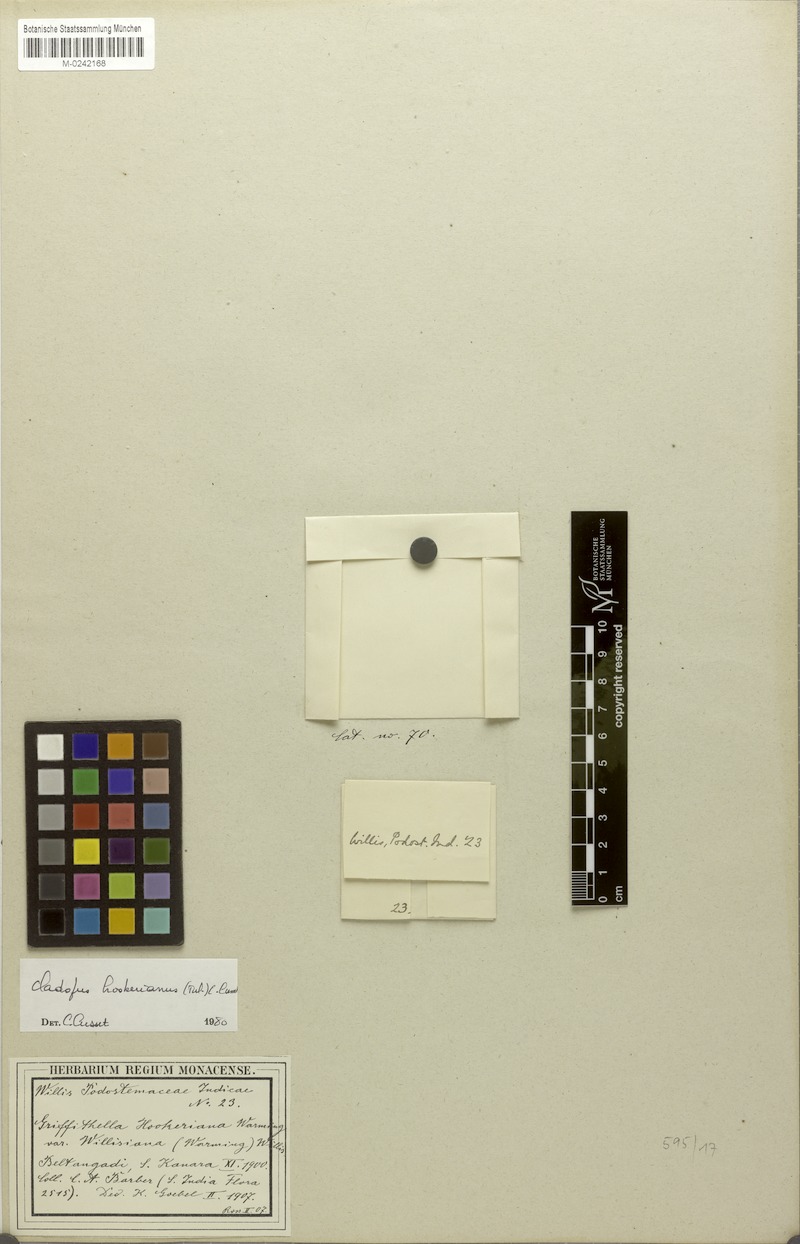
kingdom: Plantae
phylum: Tracheophyta
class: Magnoliopsida
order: Malpighiales
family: Podostemaceae
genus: Cladopus
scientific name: Cladopus hookeriana
